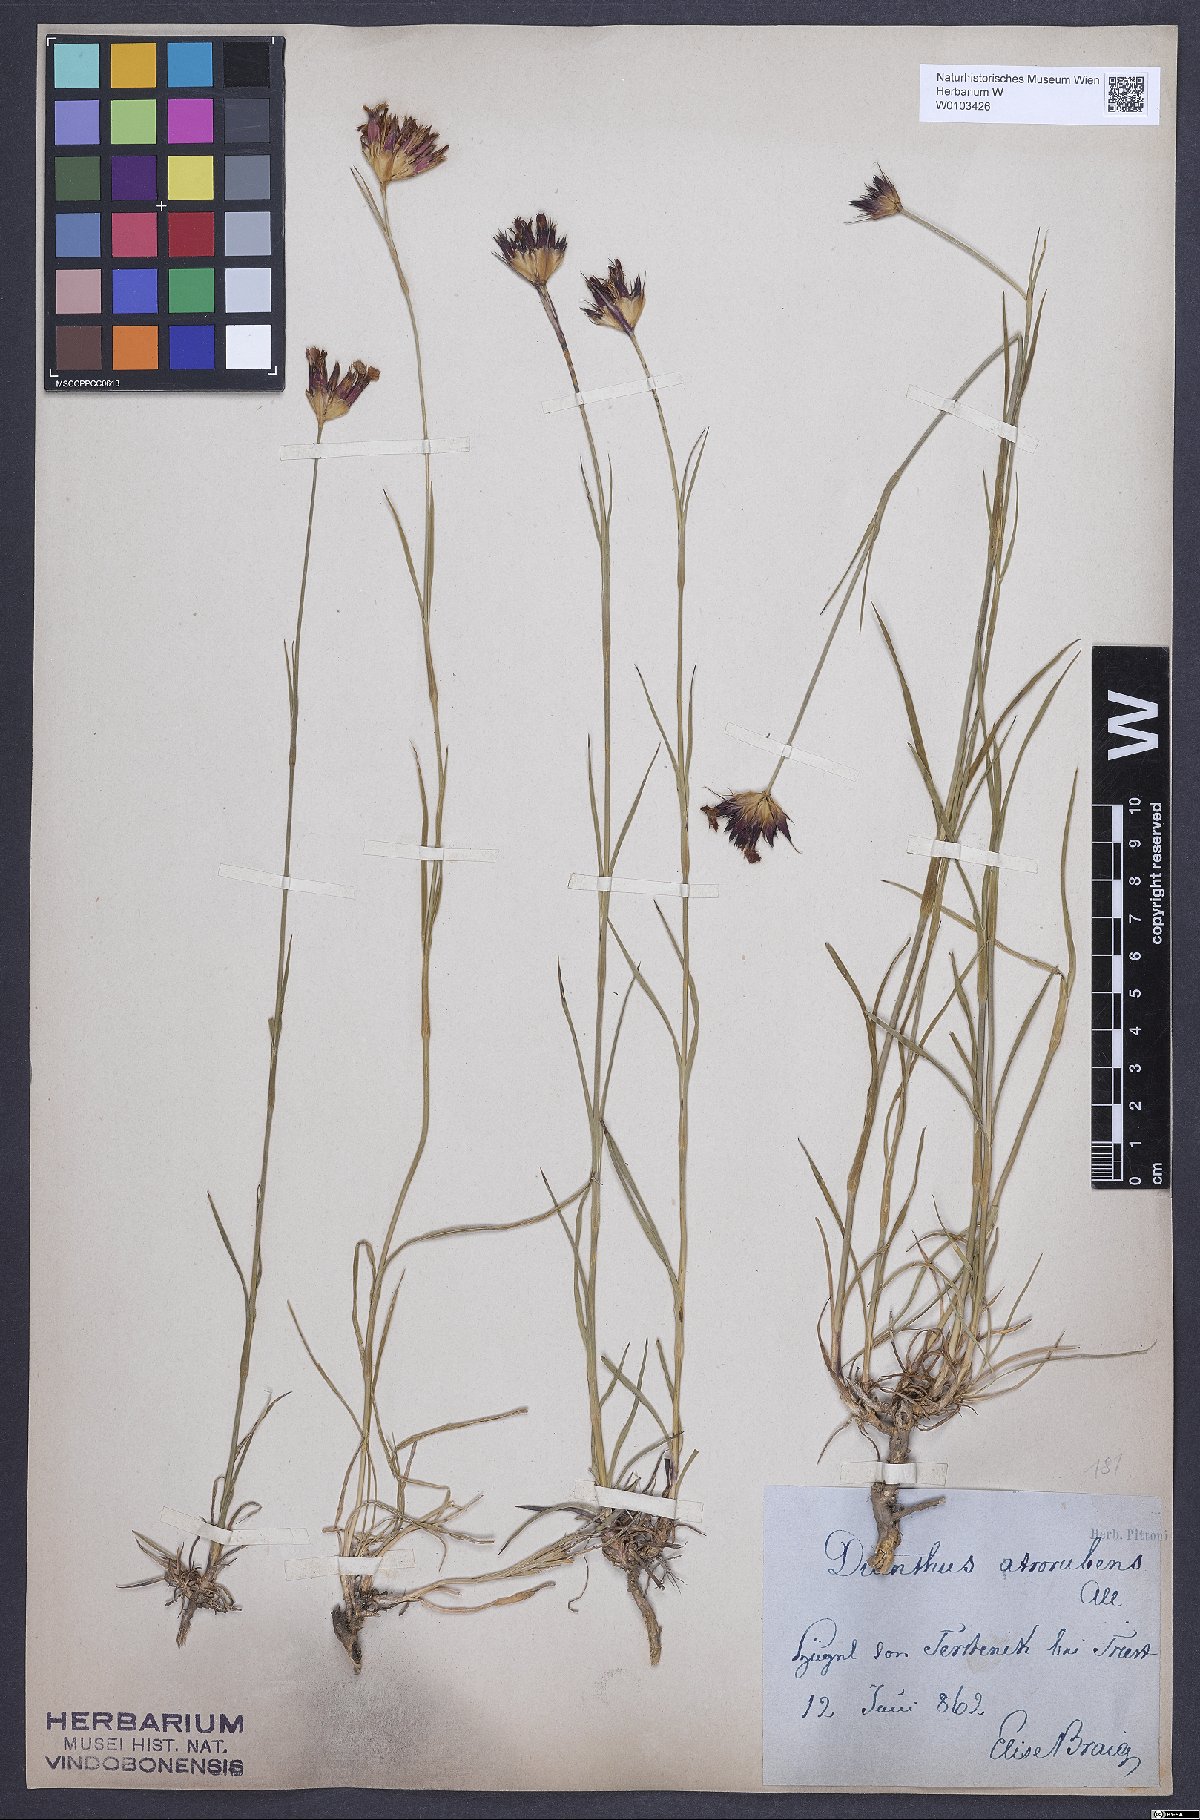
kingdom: Plantae
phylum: Tracheophyta
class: Magnoliopsida
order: Caryophyllales
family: Caryophyllaceae
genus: Dianthus
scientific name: Dianthus carthusianorum
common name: Carthusian pink
